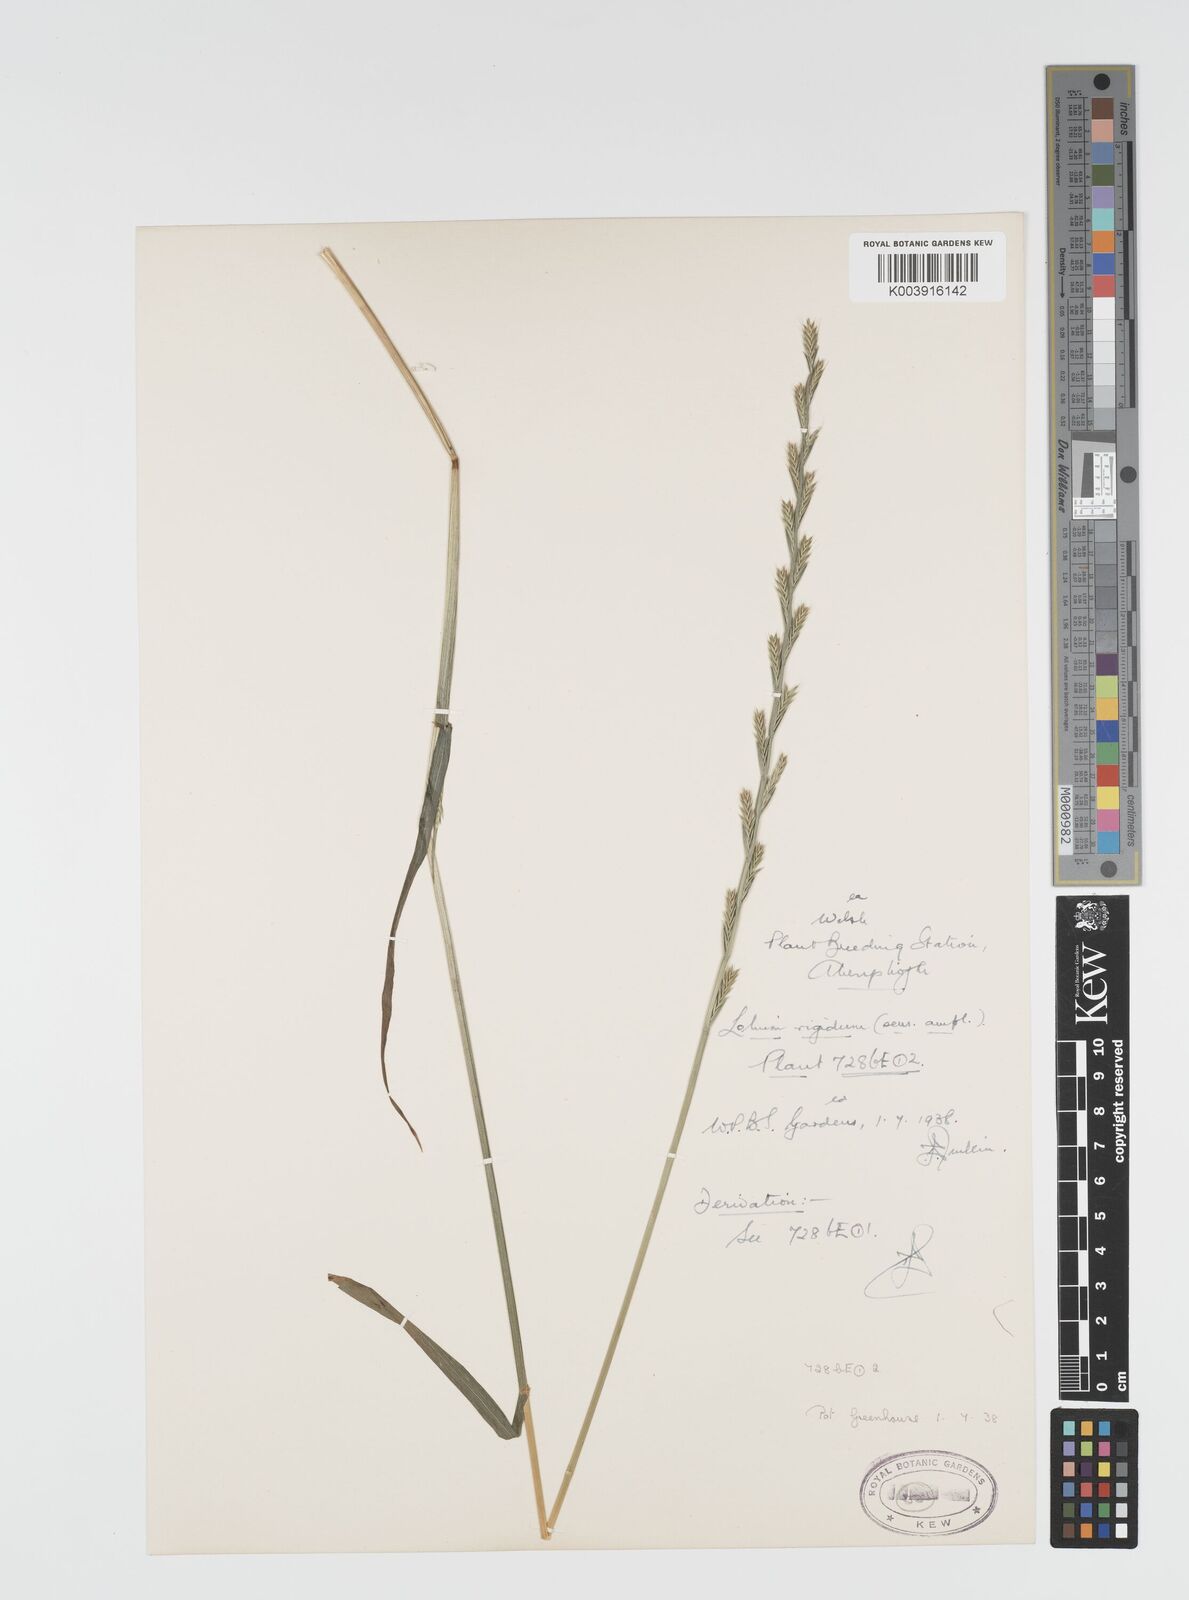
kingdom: Plantae
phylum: Tracheophyta
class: Liliopsida
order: Poales
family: Poaceae
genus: Lolium
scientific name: Lolium rigidum
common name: Wimmera ryegrass
